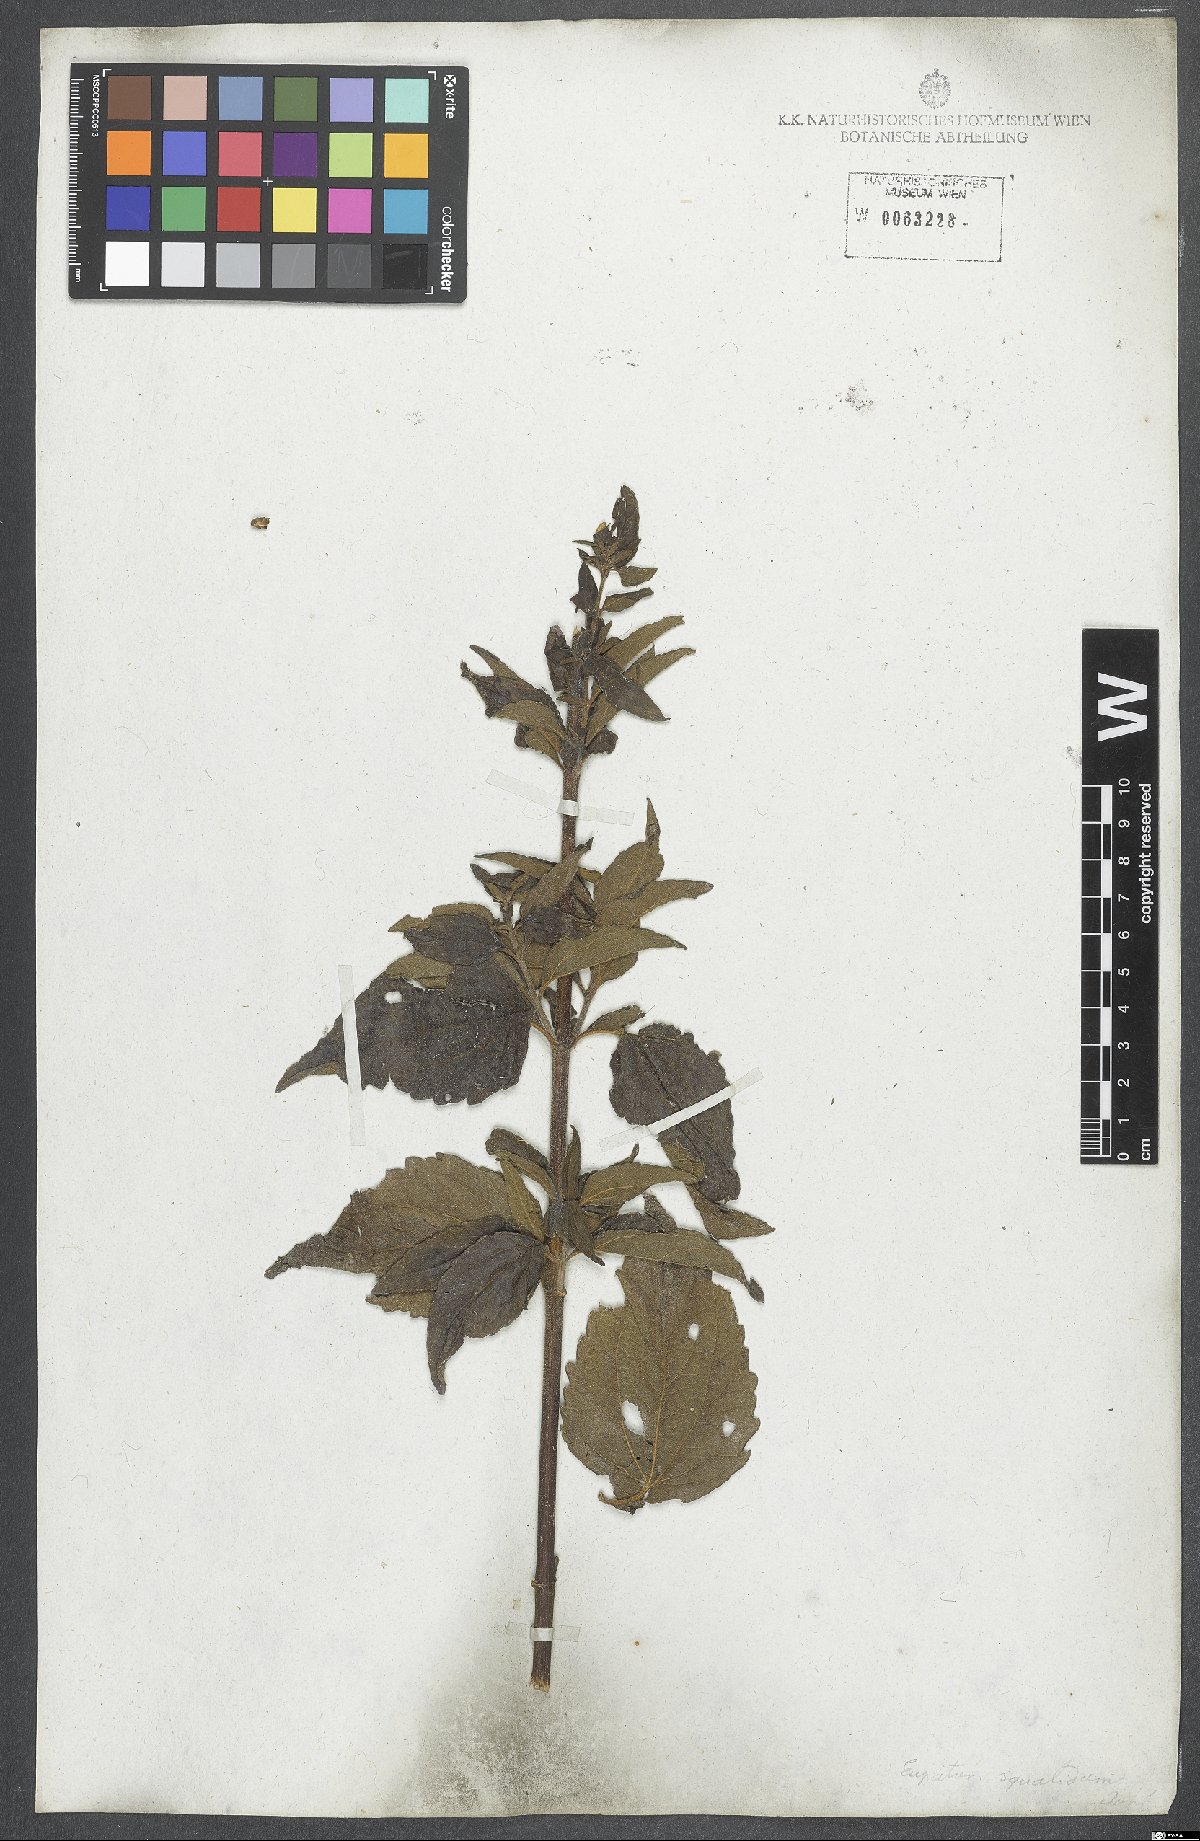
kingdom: Plantae
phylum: Tracheophyta
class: Magnoliopsida
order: Asterales
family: Asteraceae
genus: Chromolaena
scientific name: Chromolaena squalida
